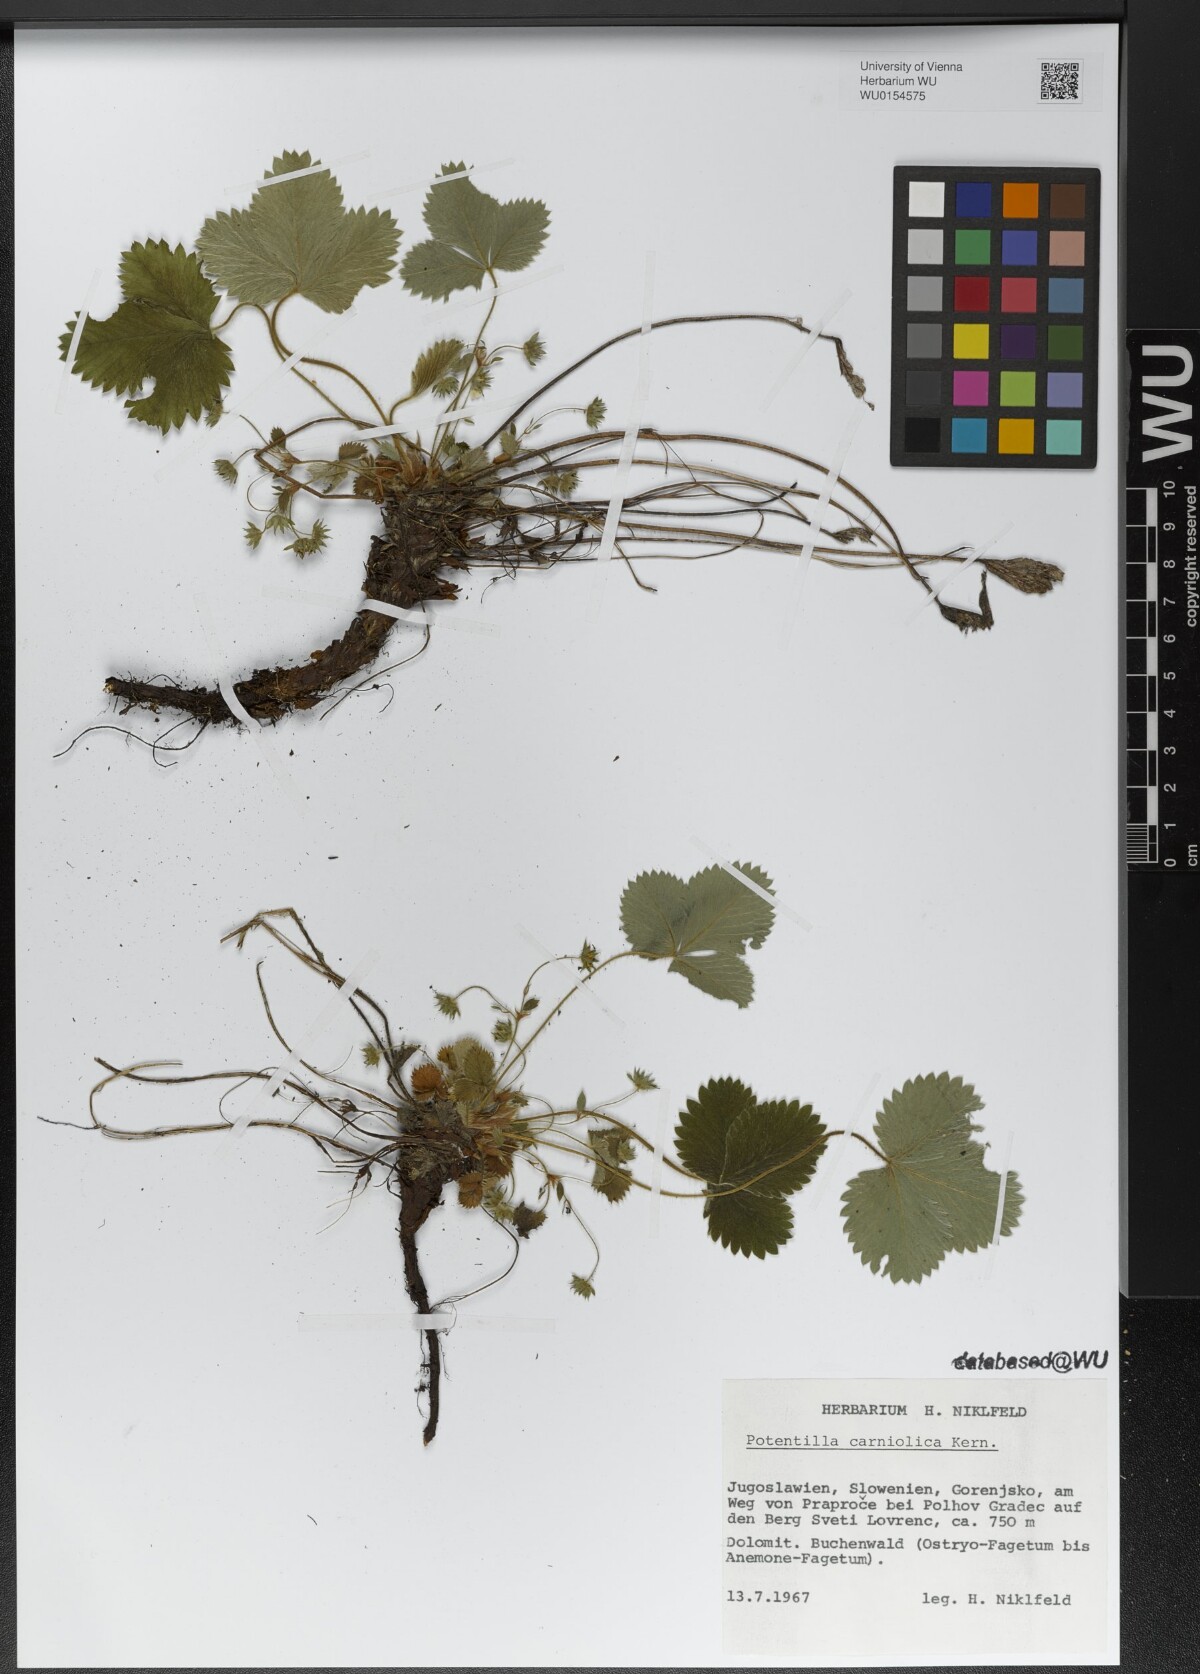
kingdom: Plantae
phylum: Tracheophyta
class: Magnoliopsida
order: Rosales
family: Rosaceae
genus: Potentilla
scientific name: Potentilla carniolica
